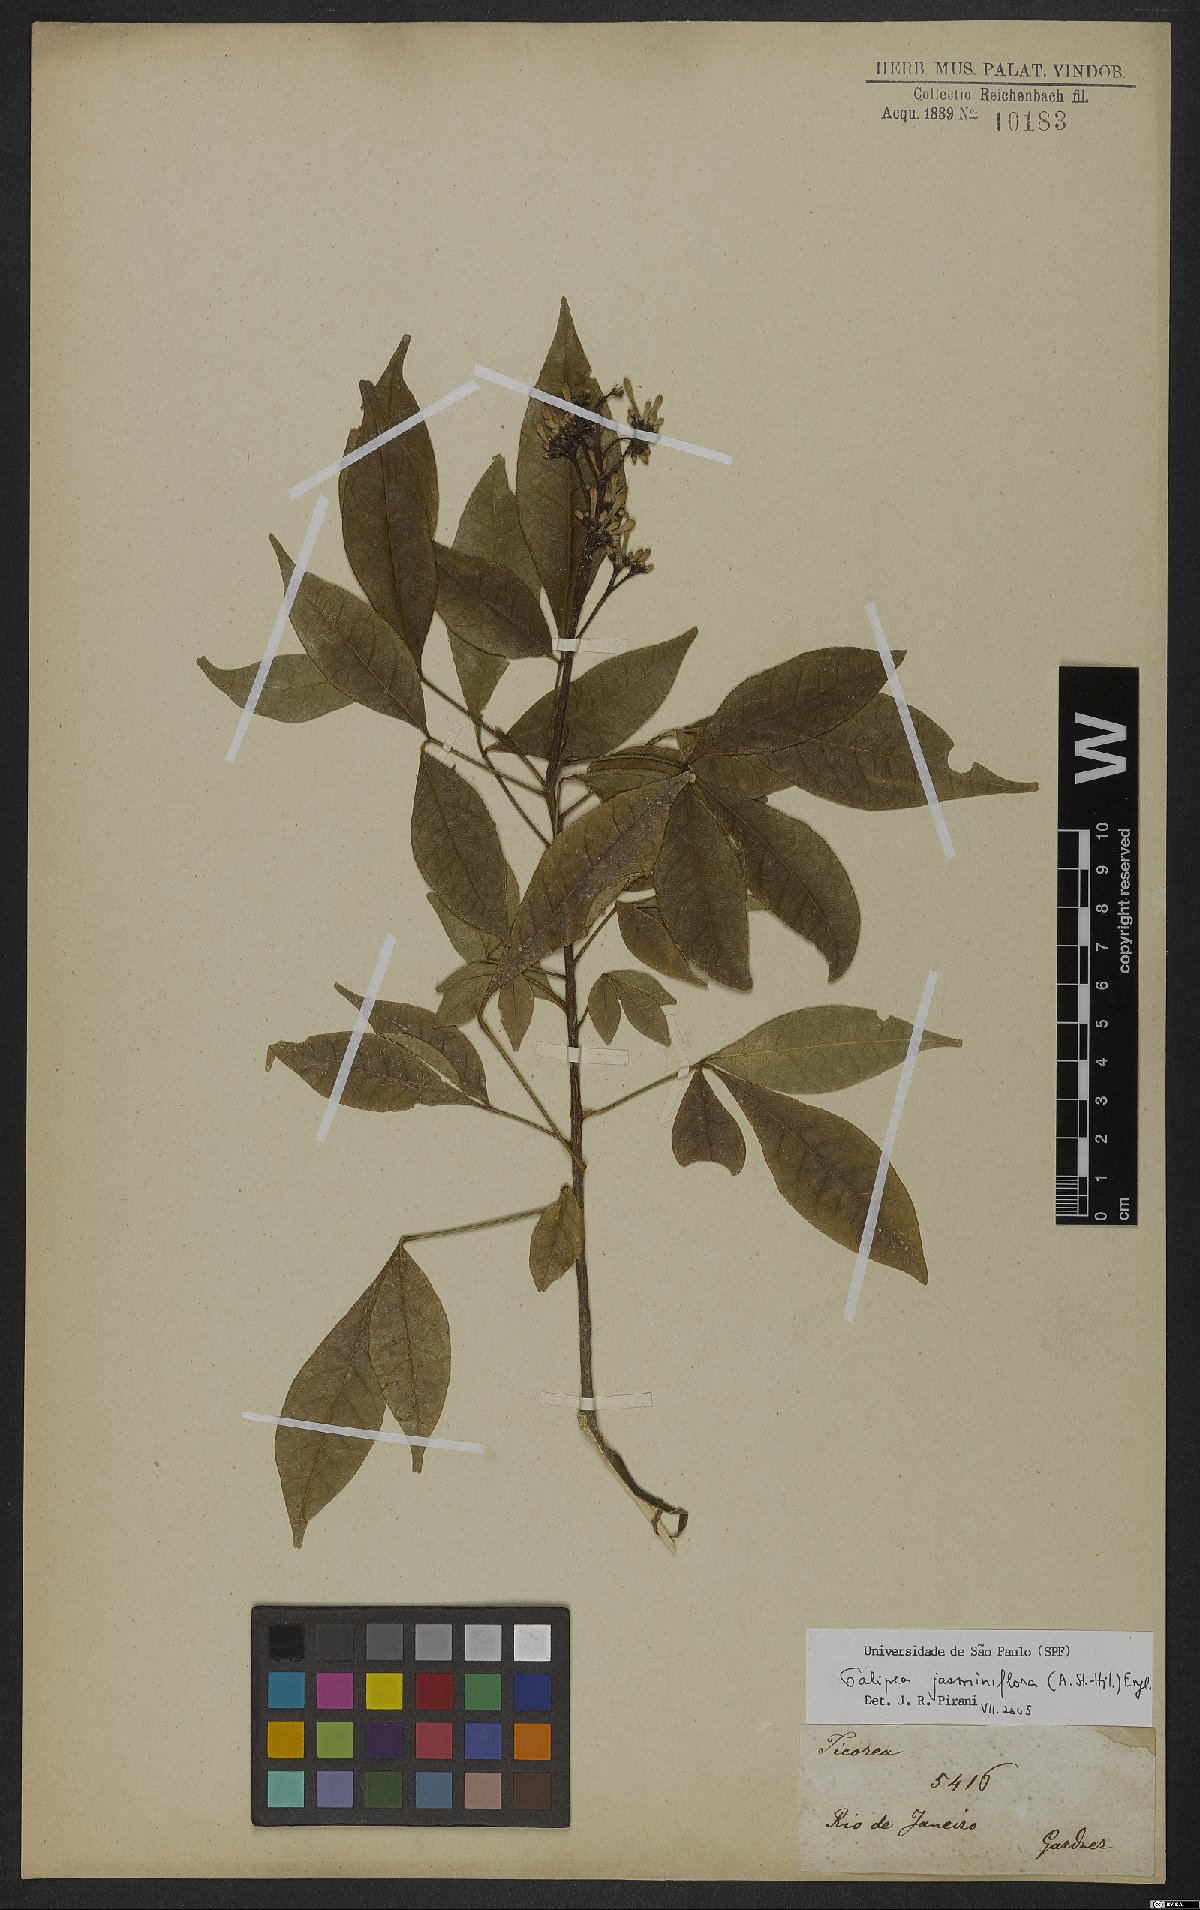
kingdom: Plantae
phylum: Tracheophyta
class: Magnoliopsida
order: Sapindales
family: Rutaceae
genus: Galipea
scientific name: Galipea jasminiflora
